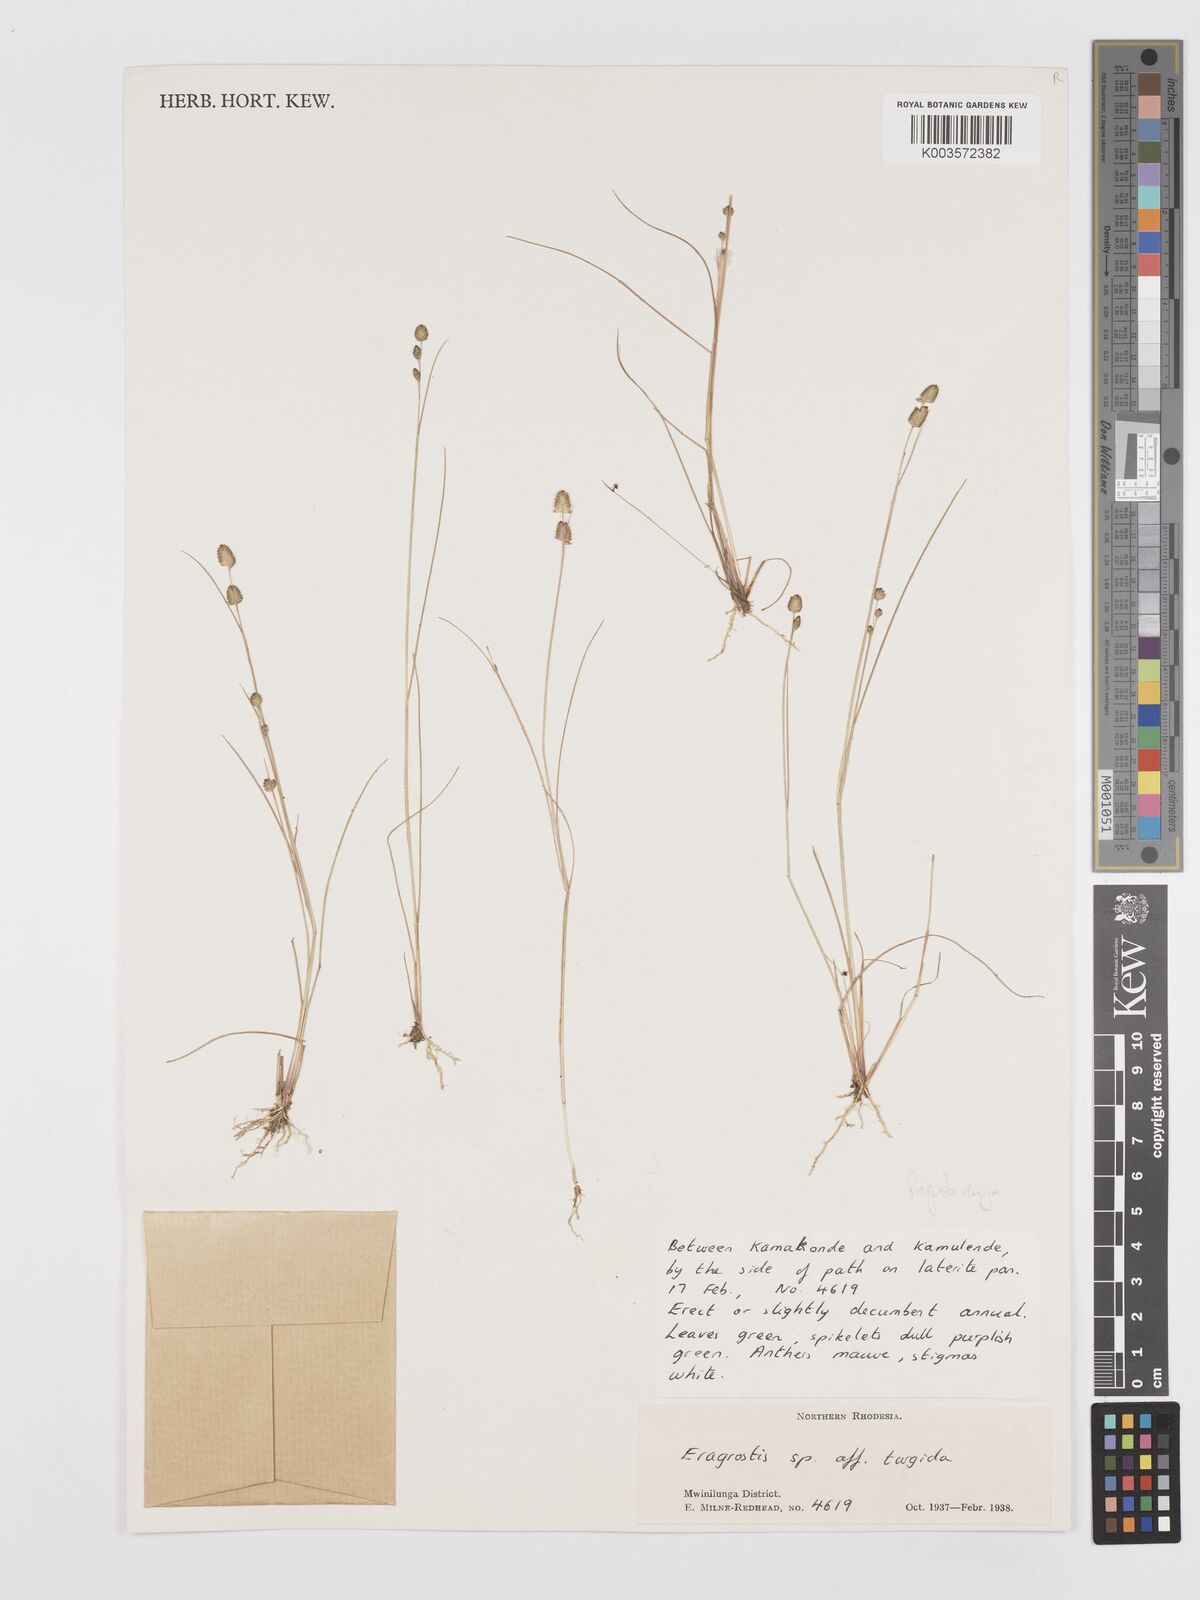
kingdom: Plantae
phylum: Tracheophyta
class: Liliopsida
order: Poales
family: Poaceae
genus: Eragrostis
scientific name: Eragrostis oligostachya
